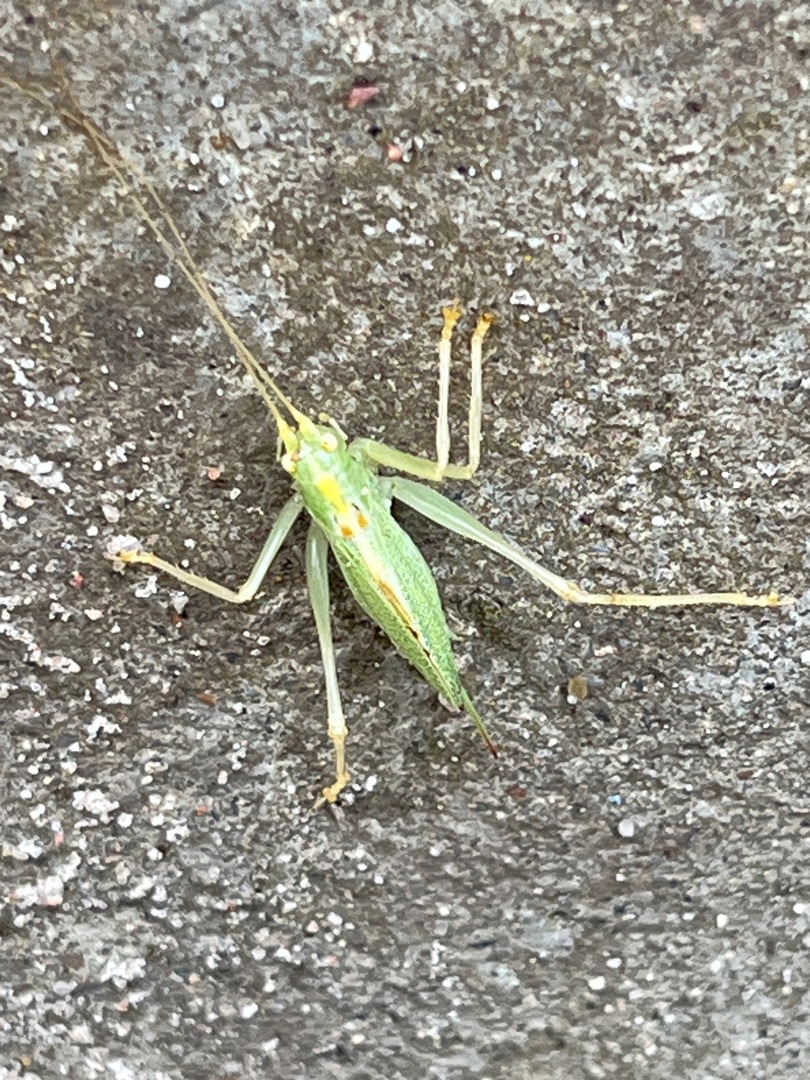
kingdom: Animalia
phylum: Arthropoda
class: Insecta
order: Orthoptera
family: Tettigoniidae
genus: Meconema
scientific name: Meconema thalassinum
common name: Egegræshoppe
